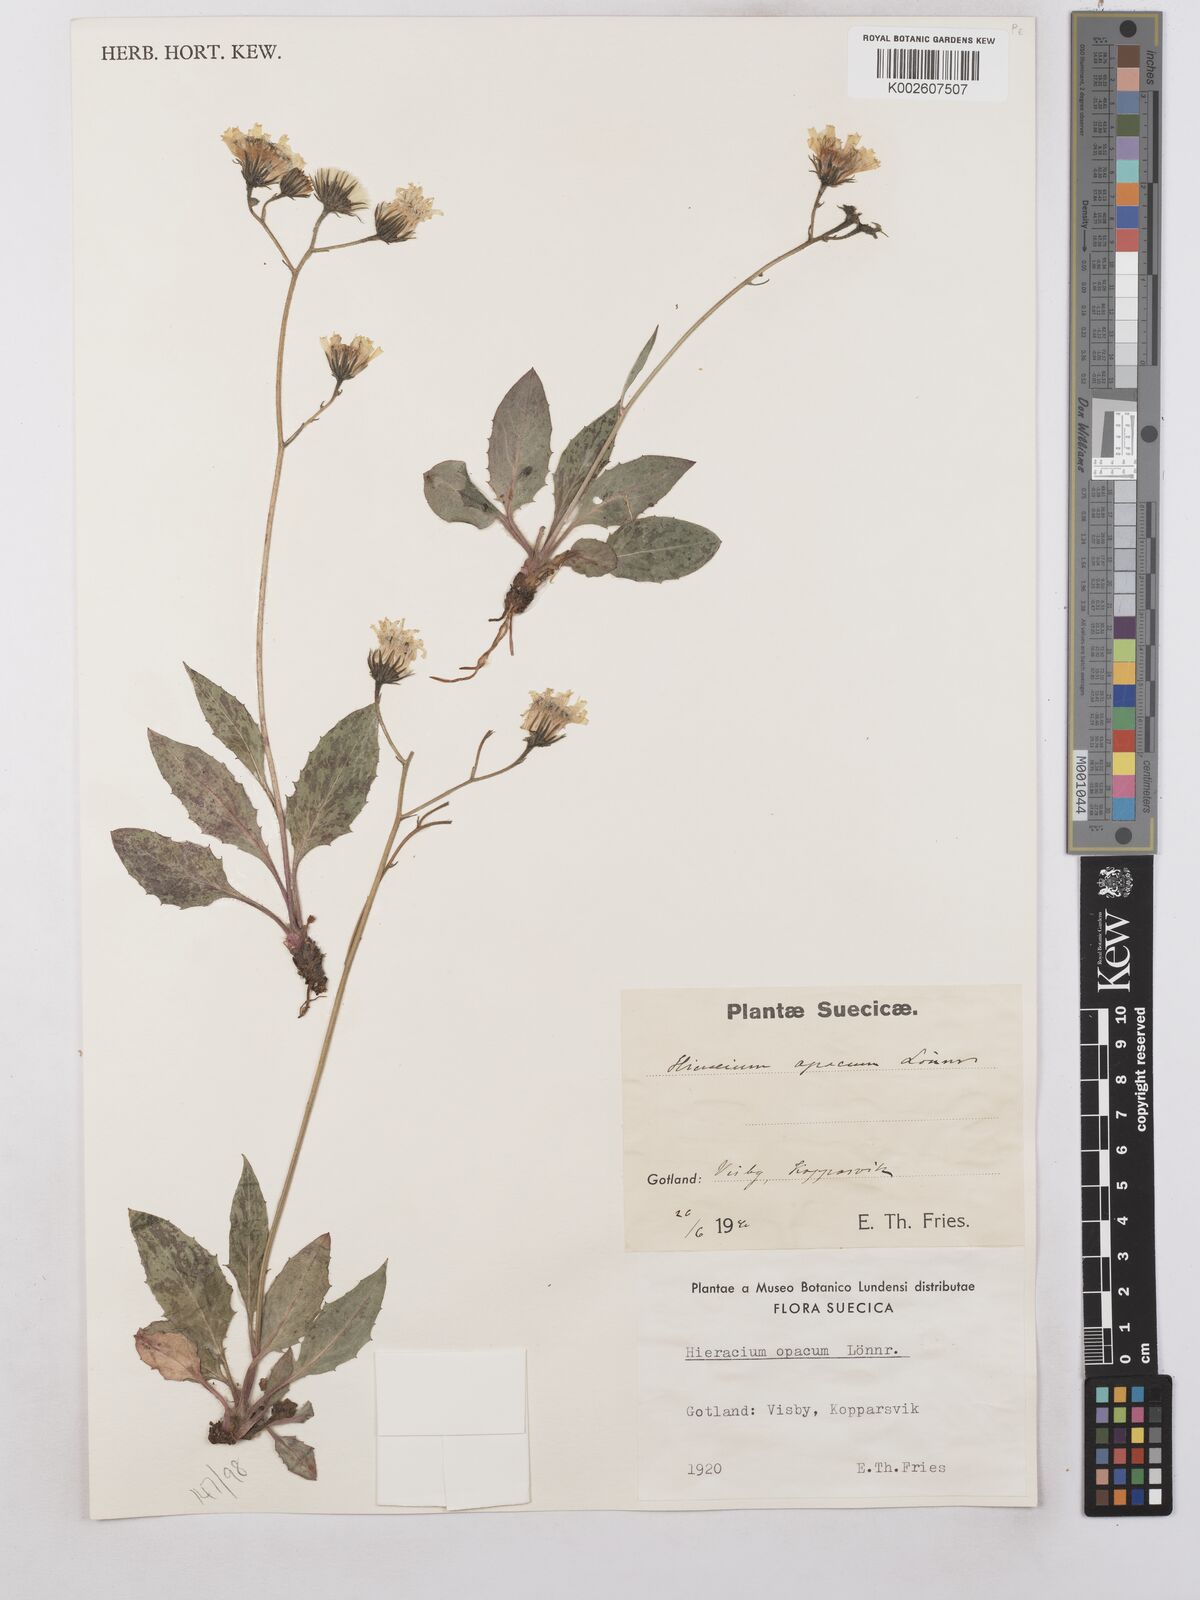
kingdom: Plantae
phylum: Tracheophyta
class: Magnoliopsida
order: Asterales
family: Asteraceae
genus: Hieracium
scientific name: Hieracium caesium
